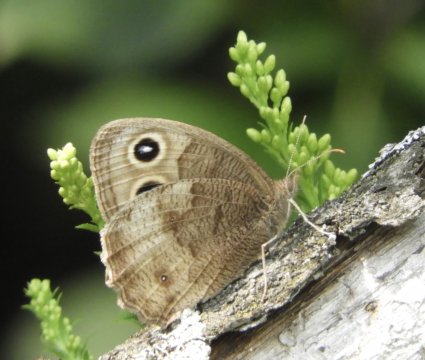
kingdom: Animalia
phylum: Arthropoda
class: Insecta
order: Lepidoptera
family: Nymphalidae
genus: Cercyonis
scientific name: Cercyonis pegala
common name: Common Wood-Nymph
